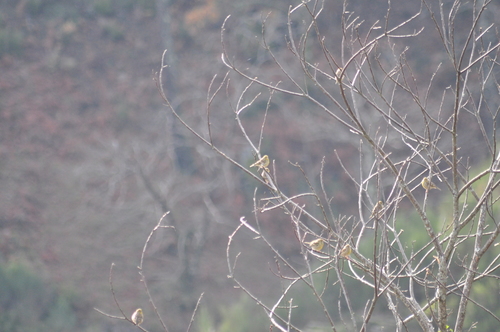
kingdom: Animalia
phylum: Chordata
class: Aves
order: Passeriformes
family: Fringillidae
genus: Serinus
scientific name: Serinus serinus
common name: European serin
